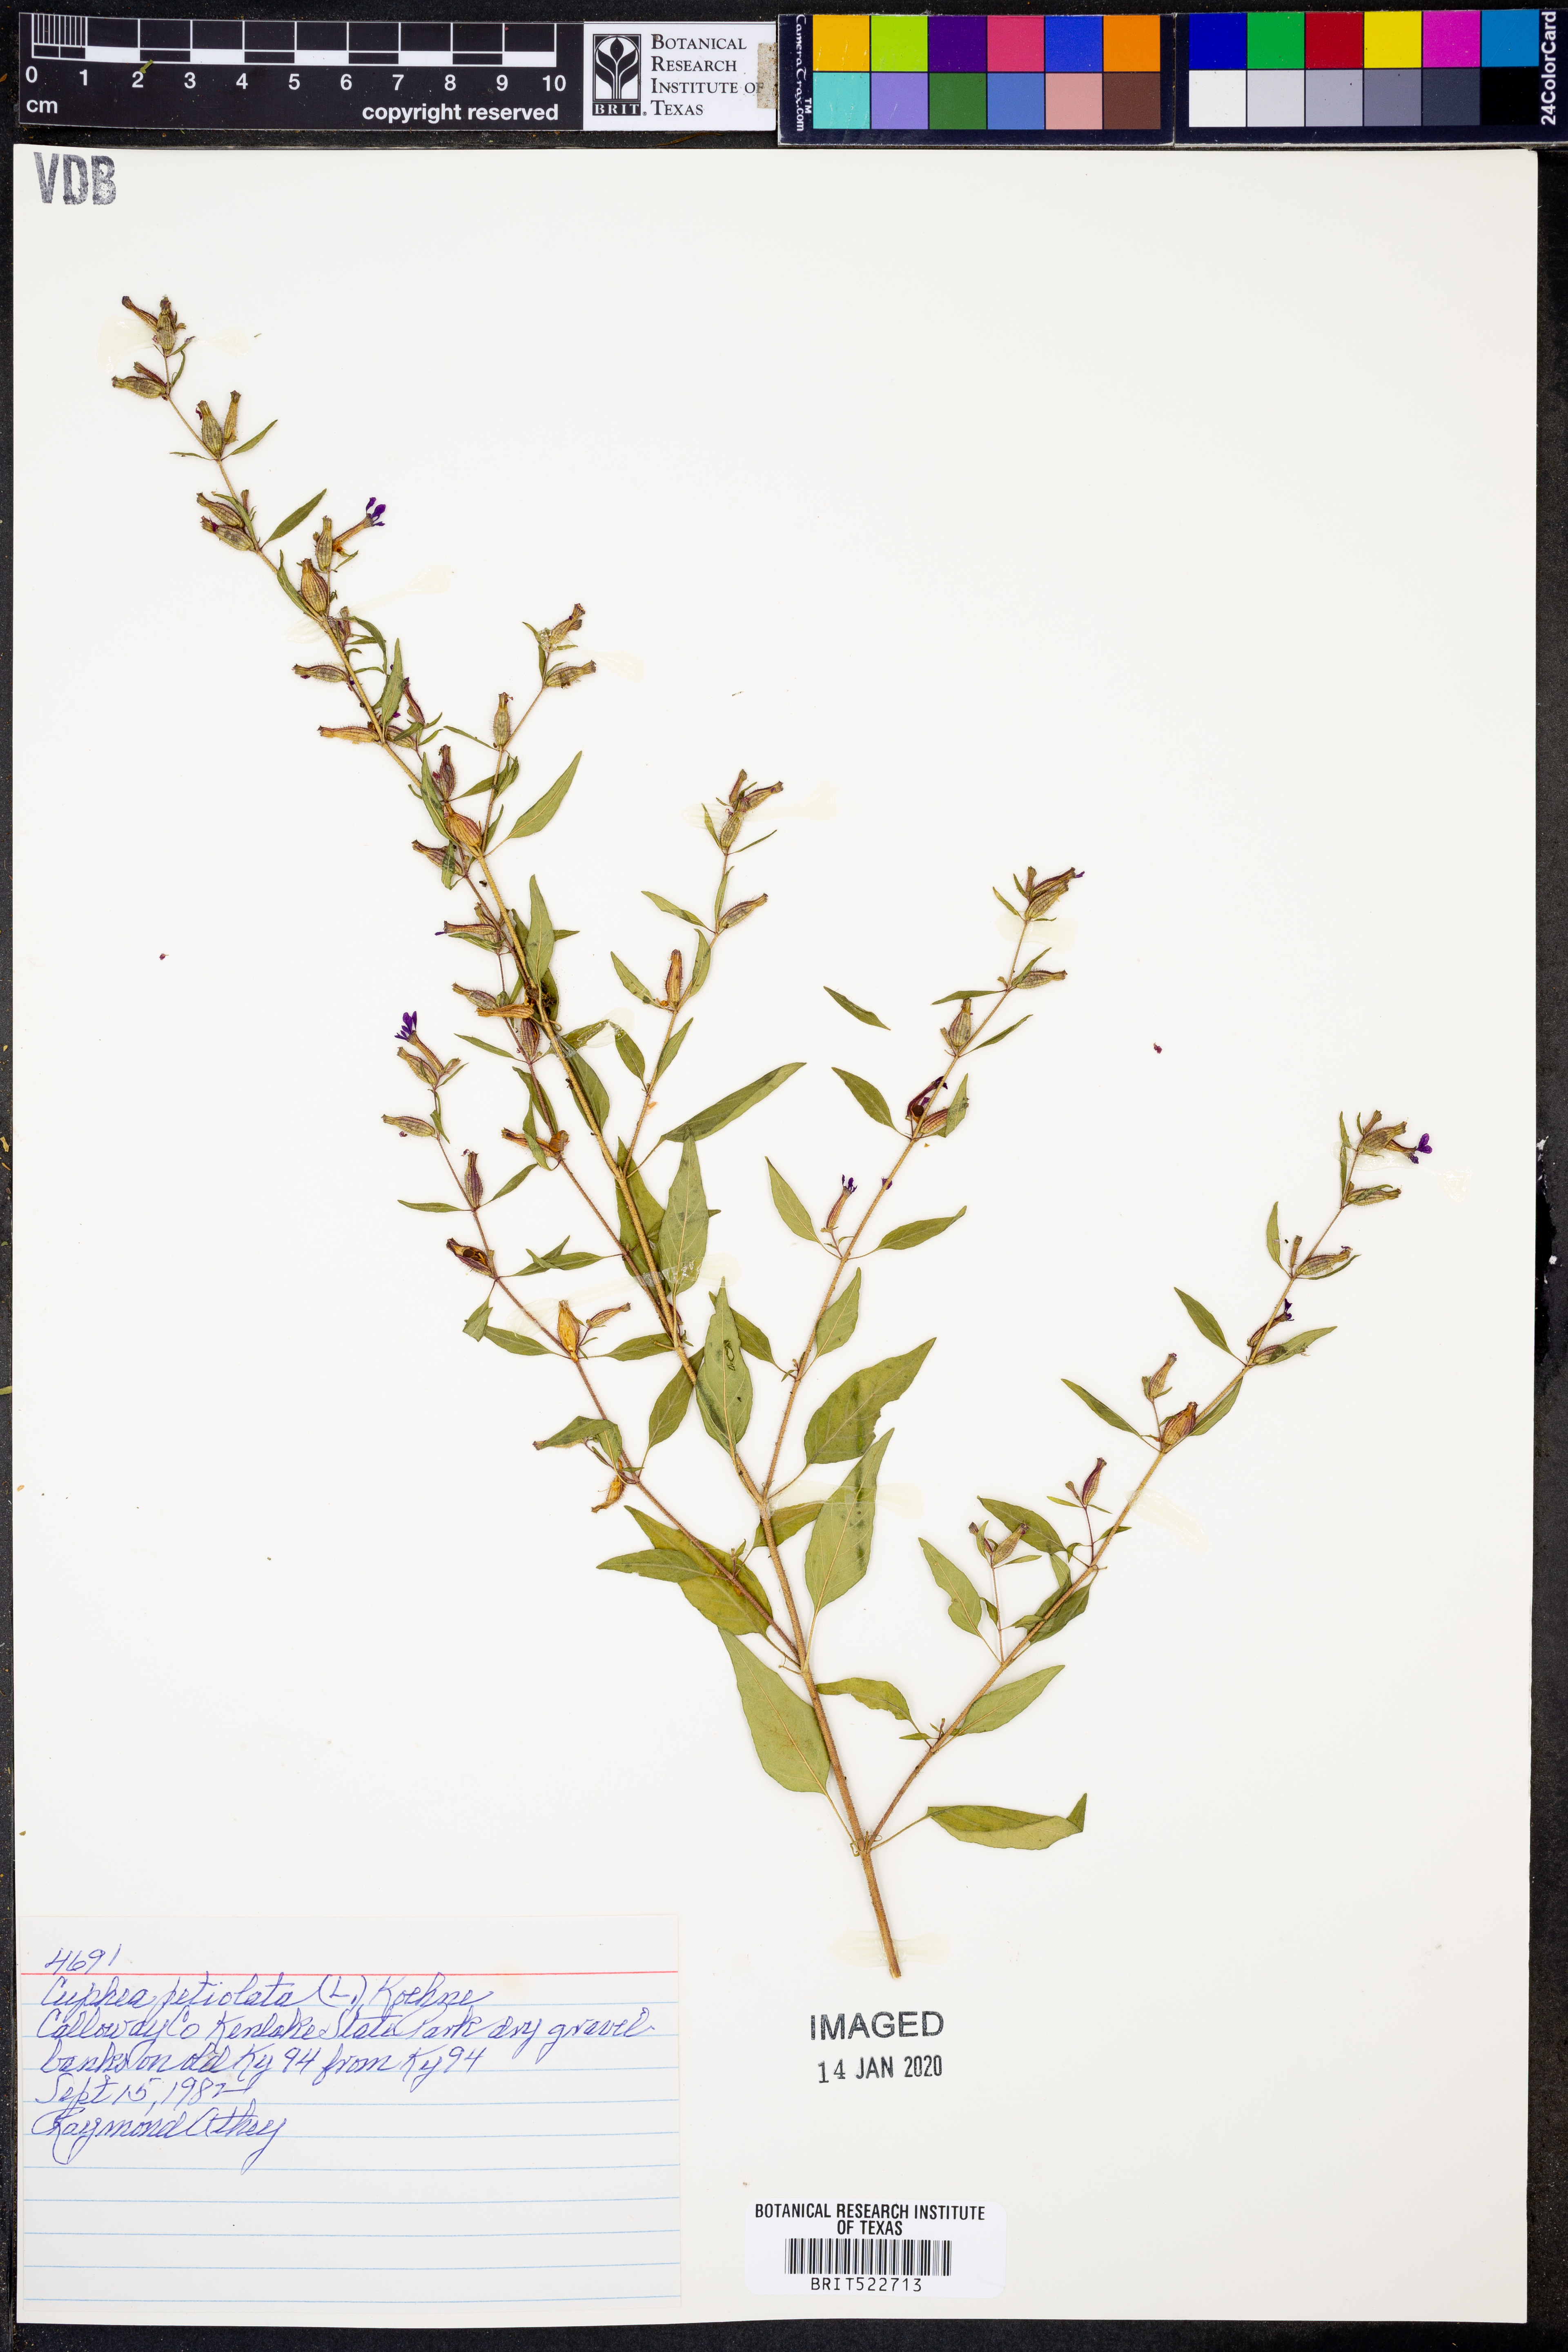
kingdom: Plantae
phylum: Tracheophyta
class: Magnoliopsida
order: Myrtales
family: Lythraceae
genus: Cuphea
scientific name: Cuphea viscosissima
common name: Clammy cuphea
